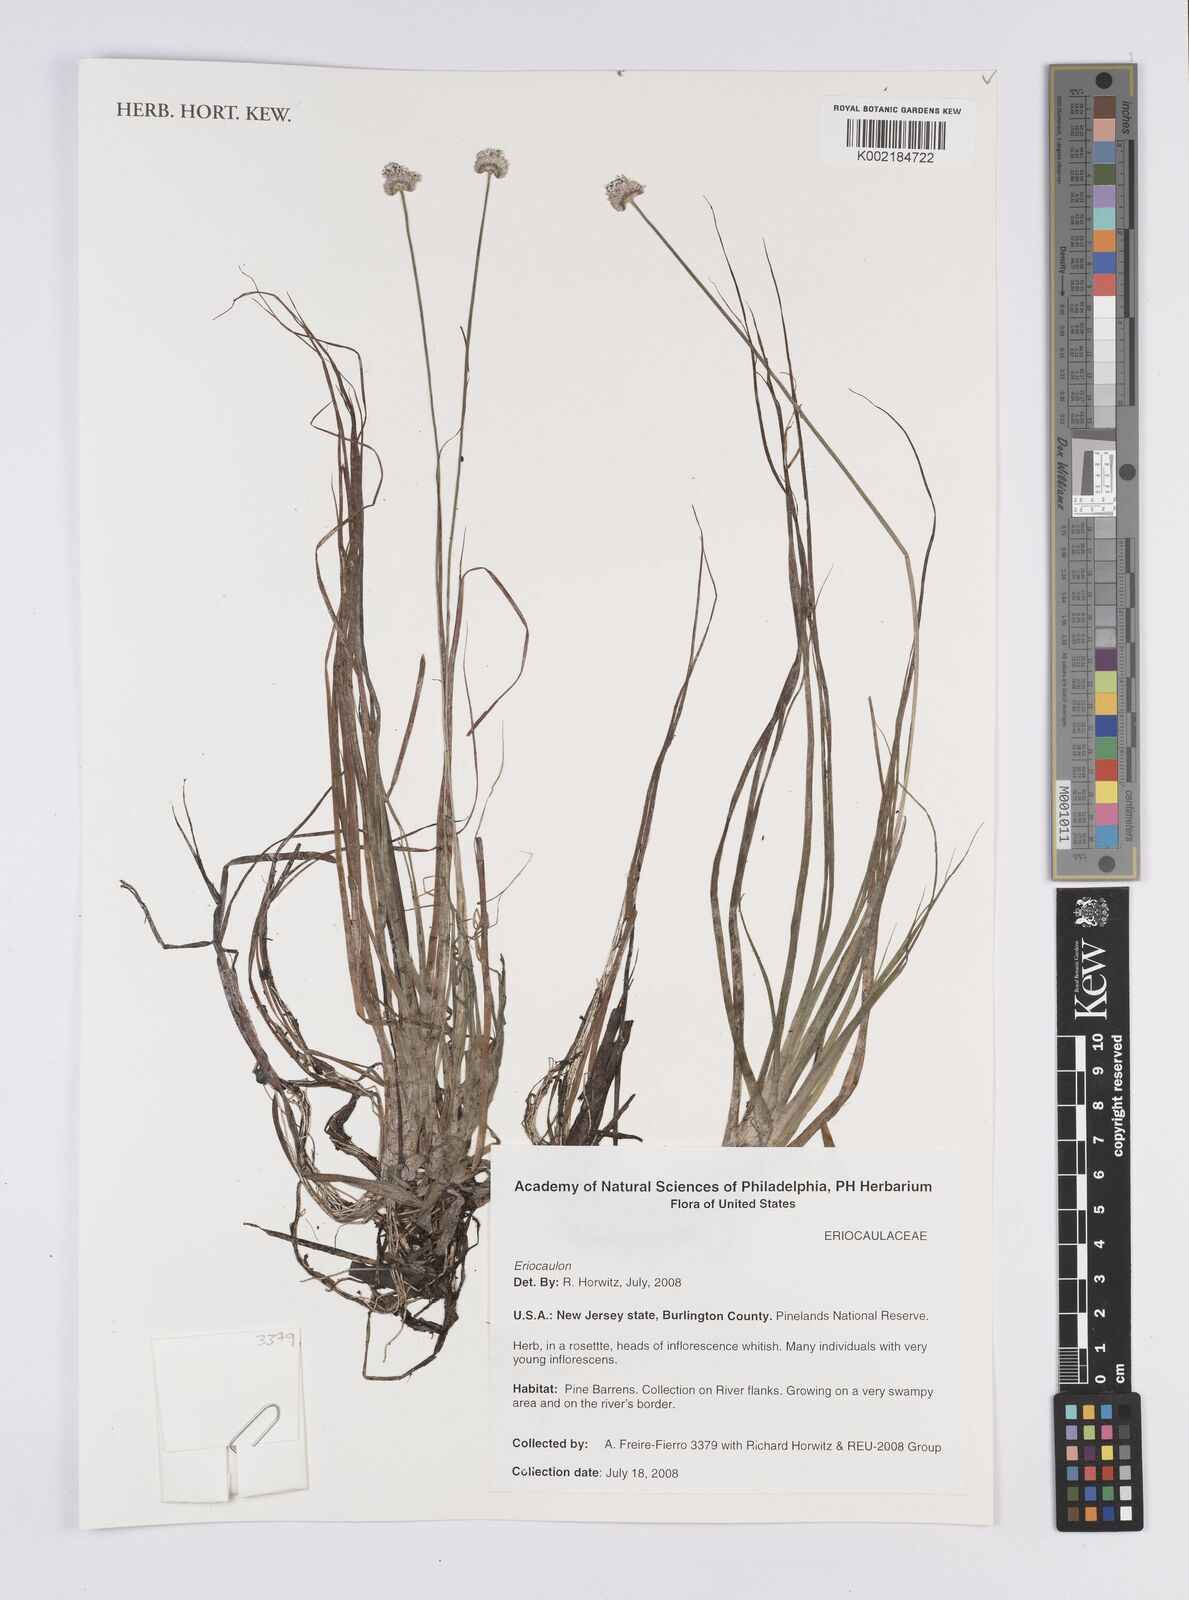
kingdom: Plantae
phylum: Tracheophyta
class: Liliopsida
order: Poales
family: Eriocaulaceae
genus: Eriocaulon
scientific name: Eriocaulon
